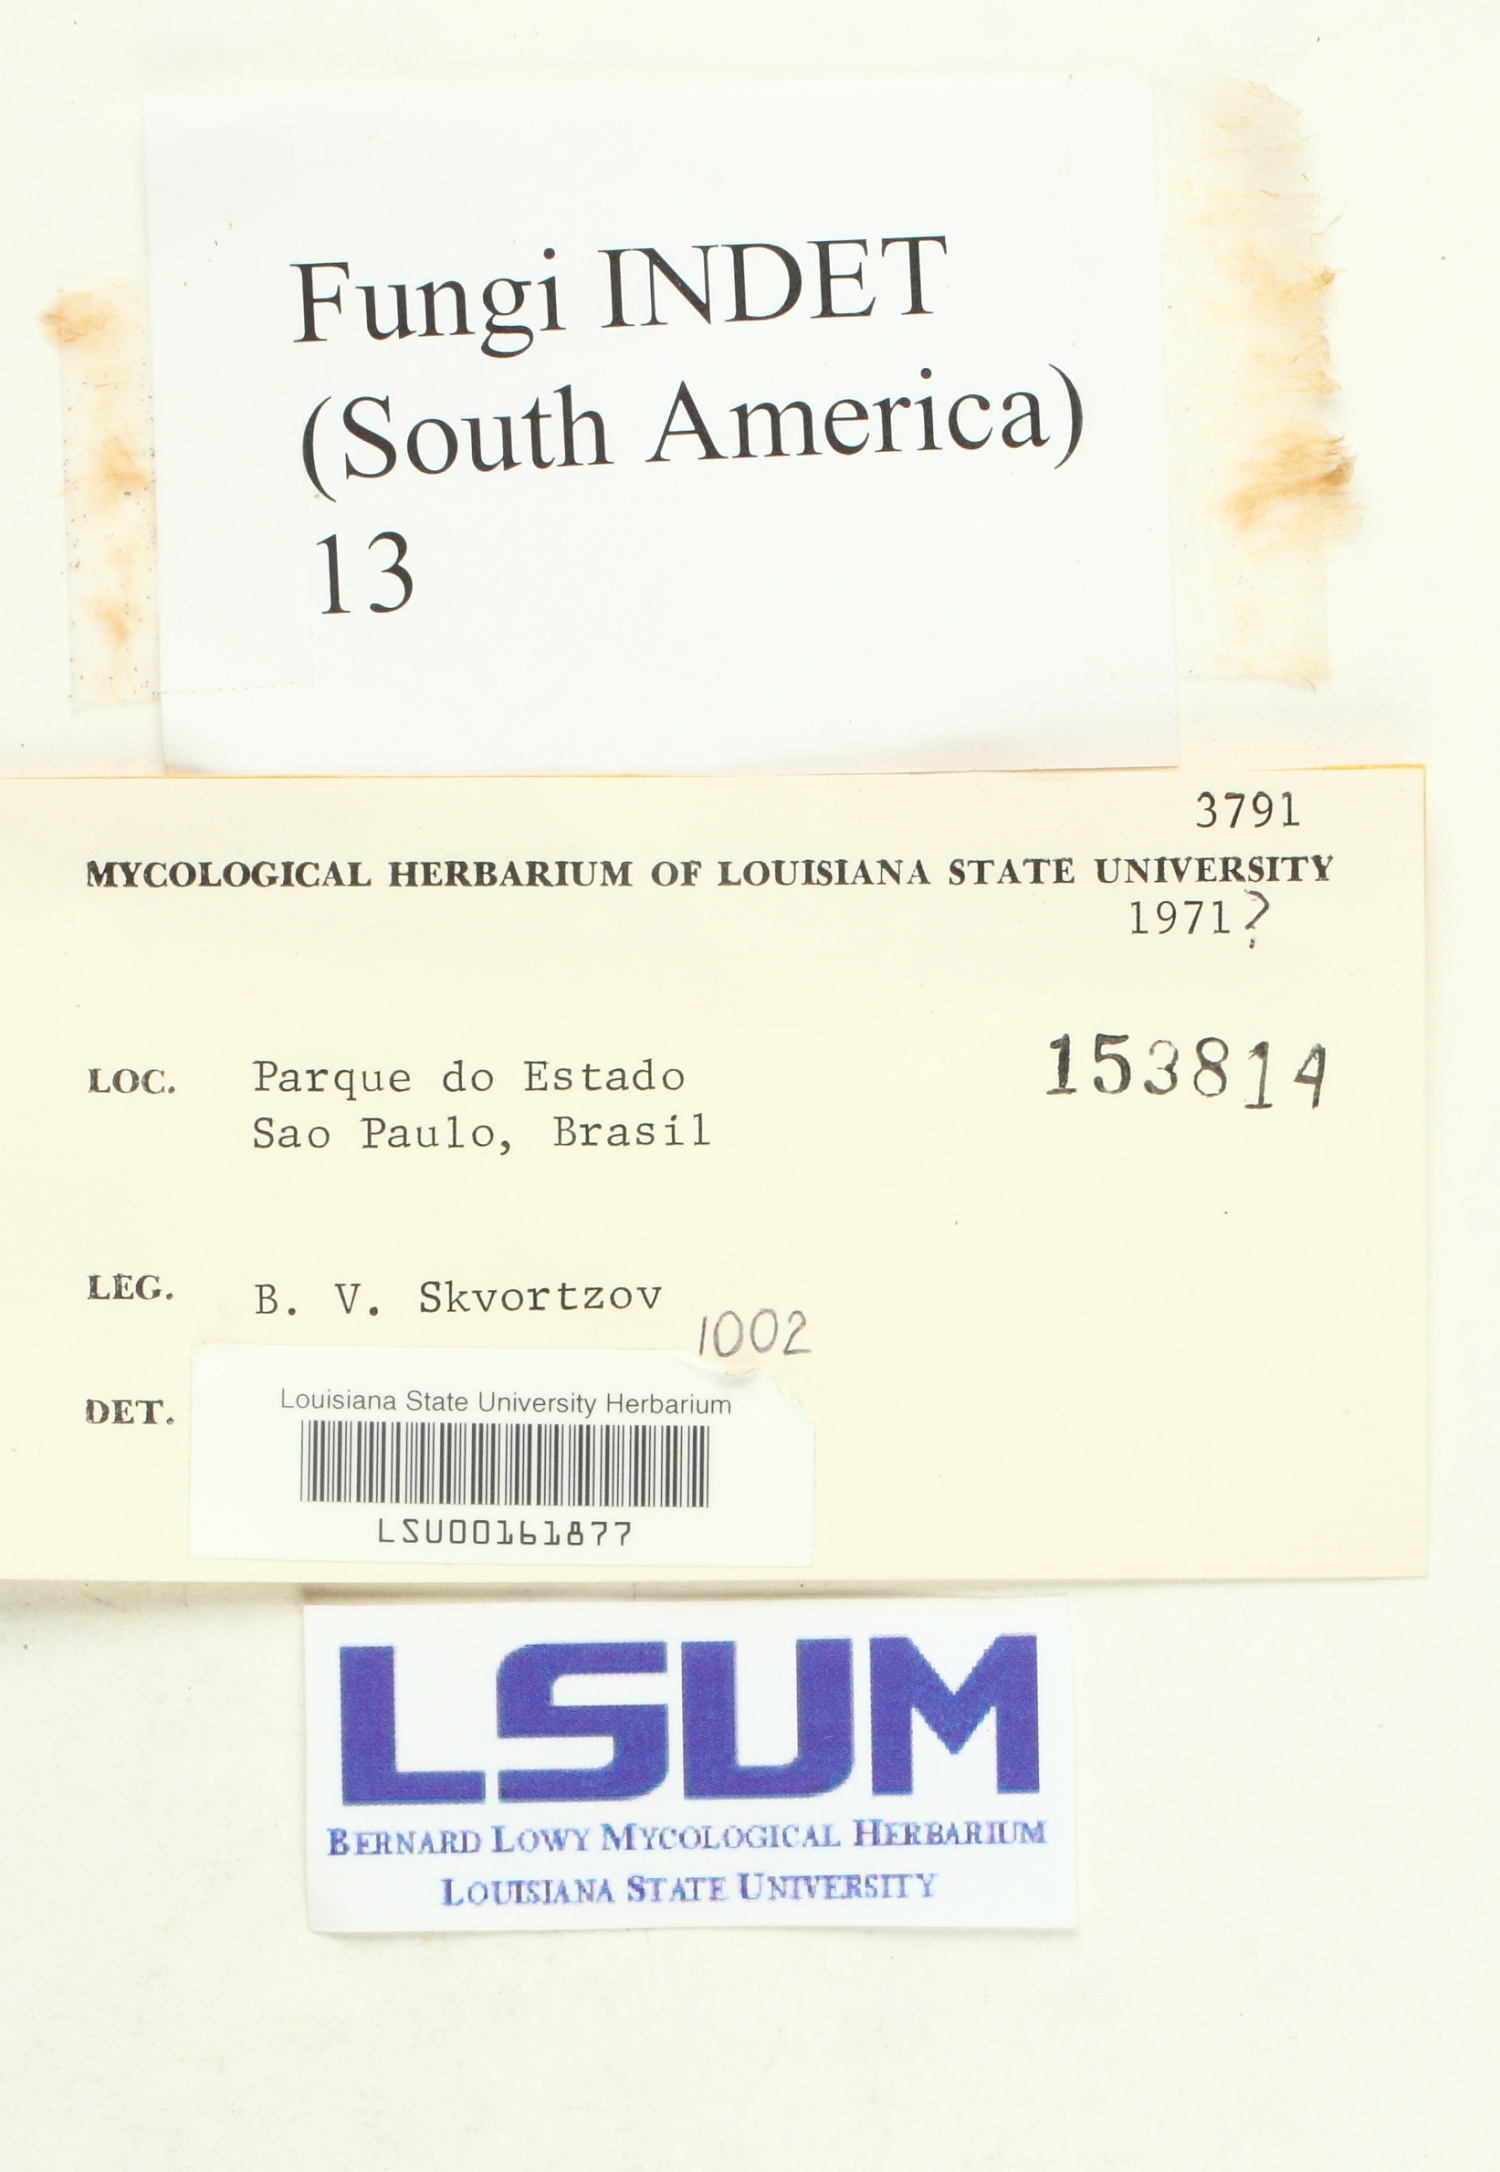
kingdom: Fungi
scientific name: Fungi
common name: Fungi
